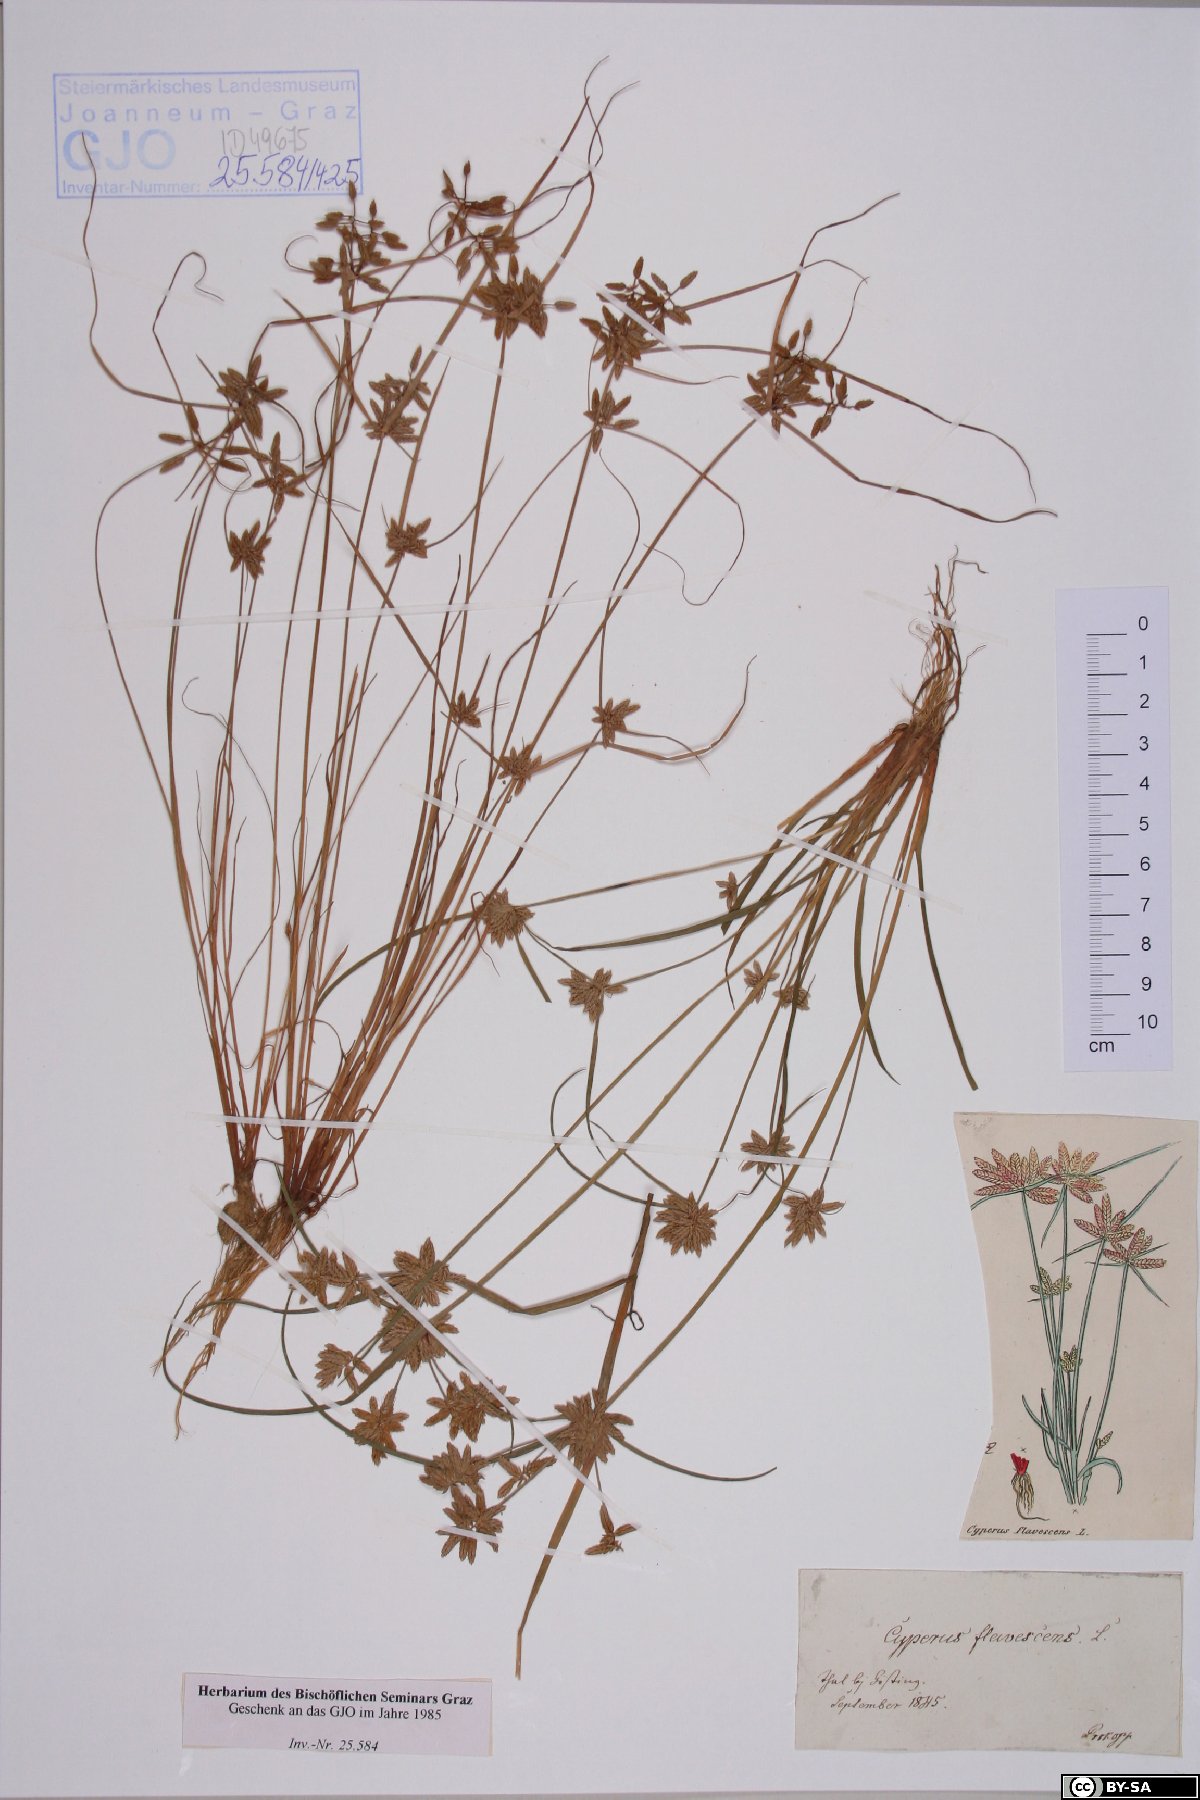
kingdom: Plantae
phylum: Tracheophyta
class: Liliopsida
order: Poales
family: Cyperaceae
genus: Cyperus
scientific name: Cyperus flavescens
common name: Yellow galingale
